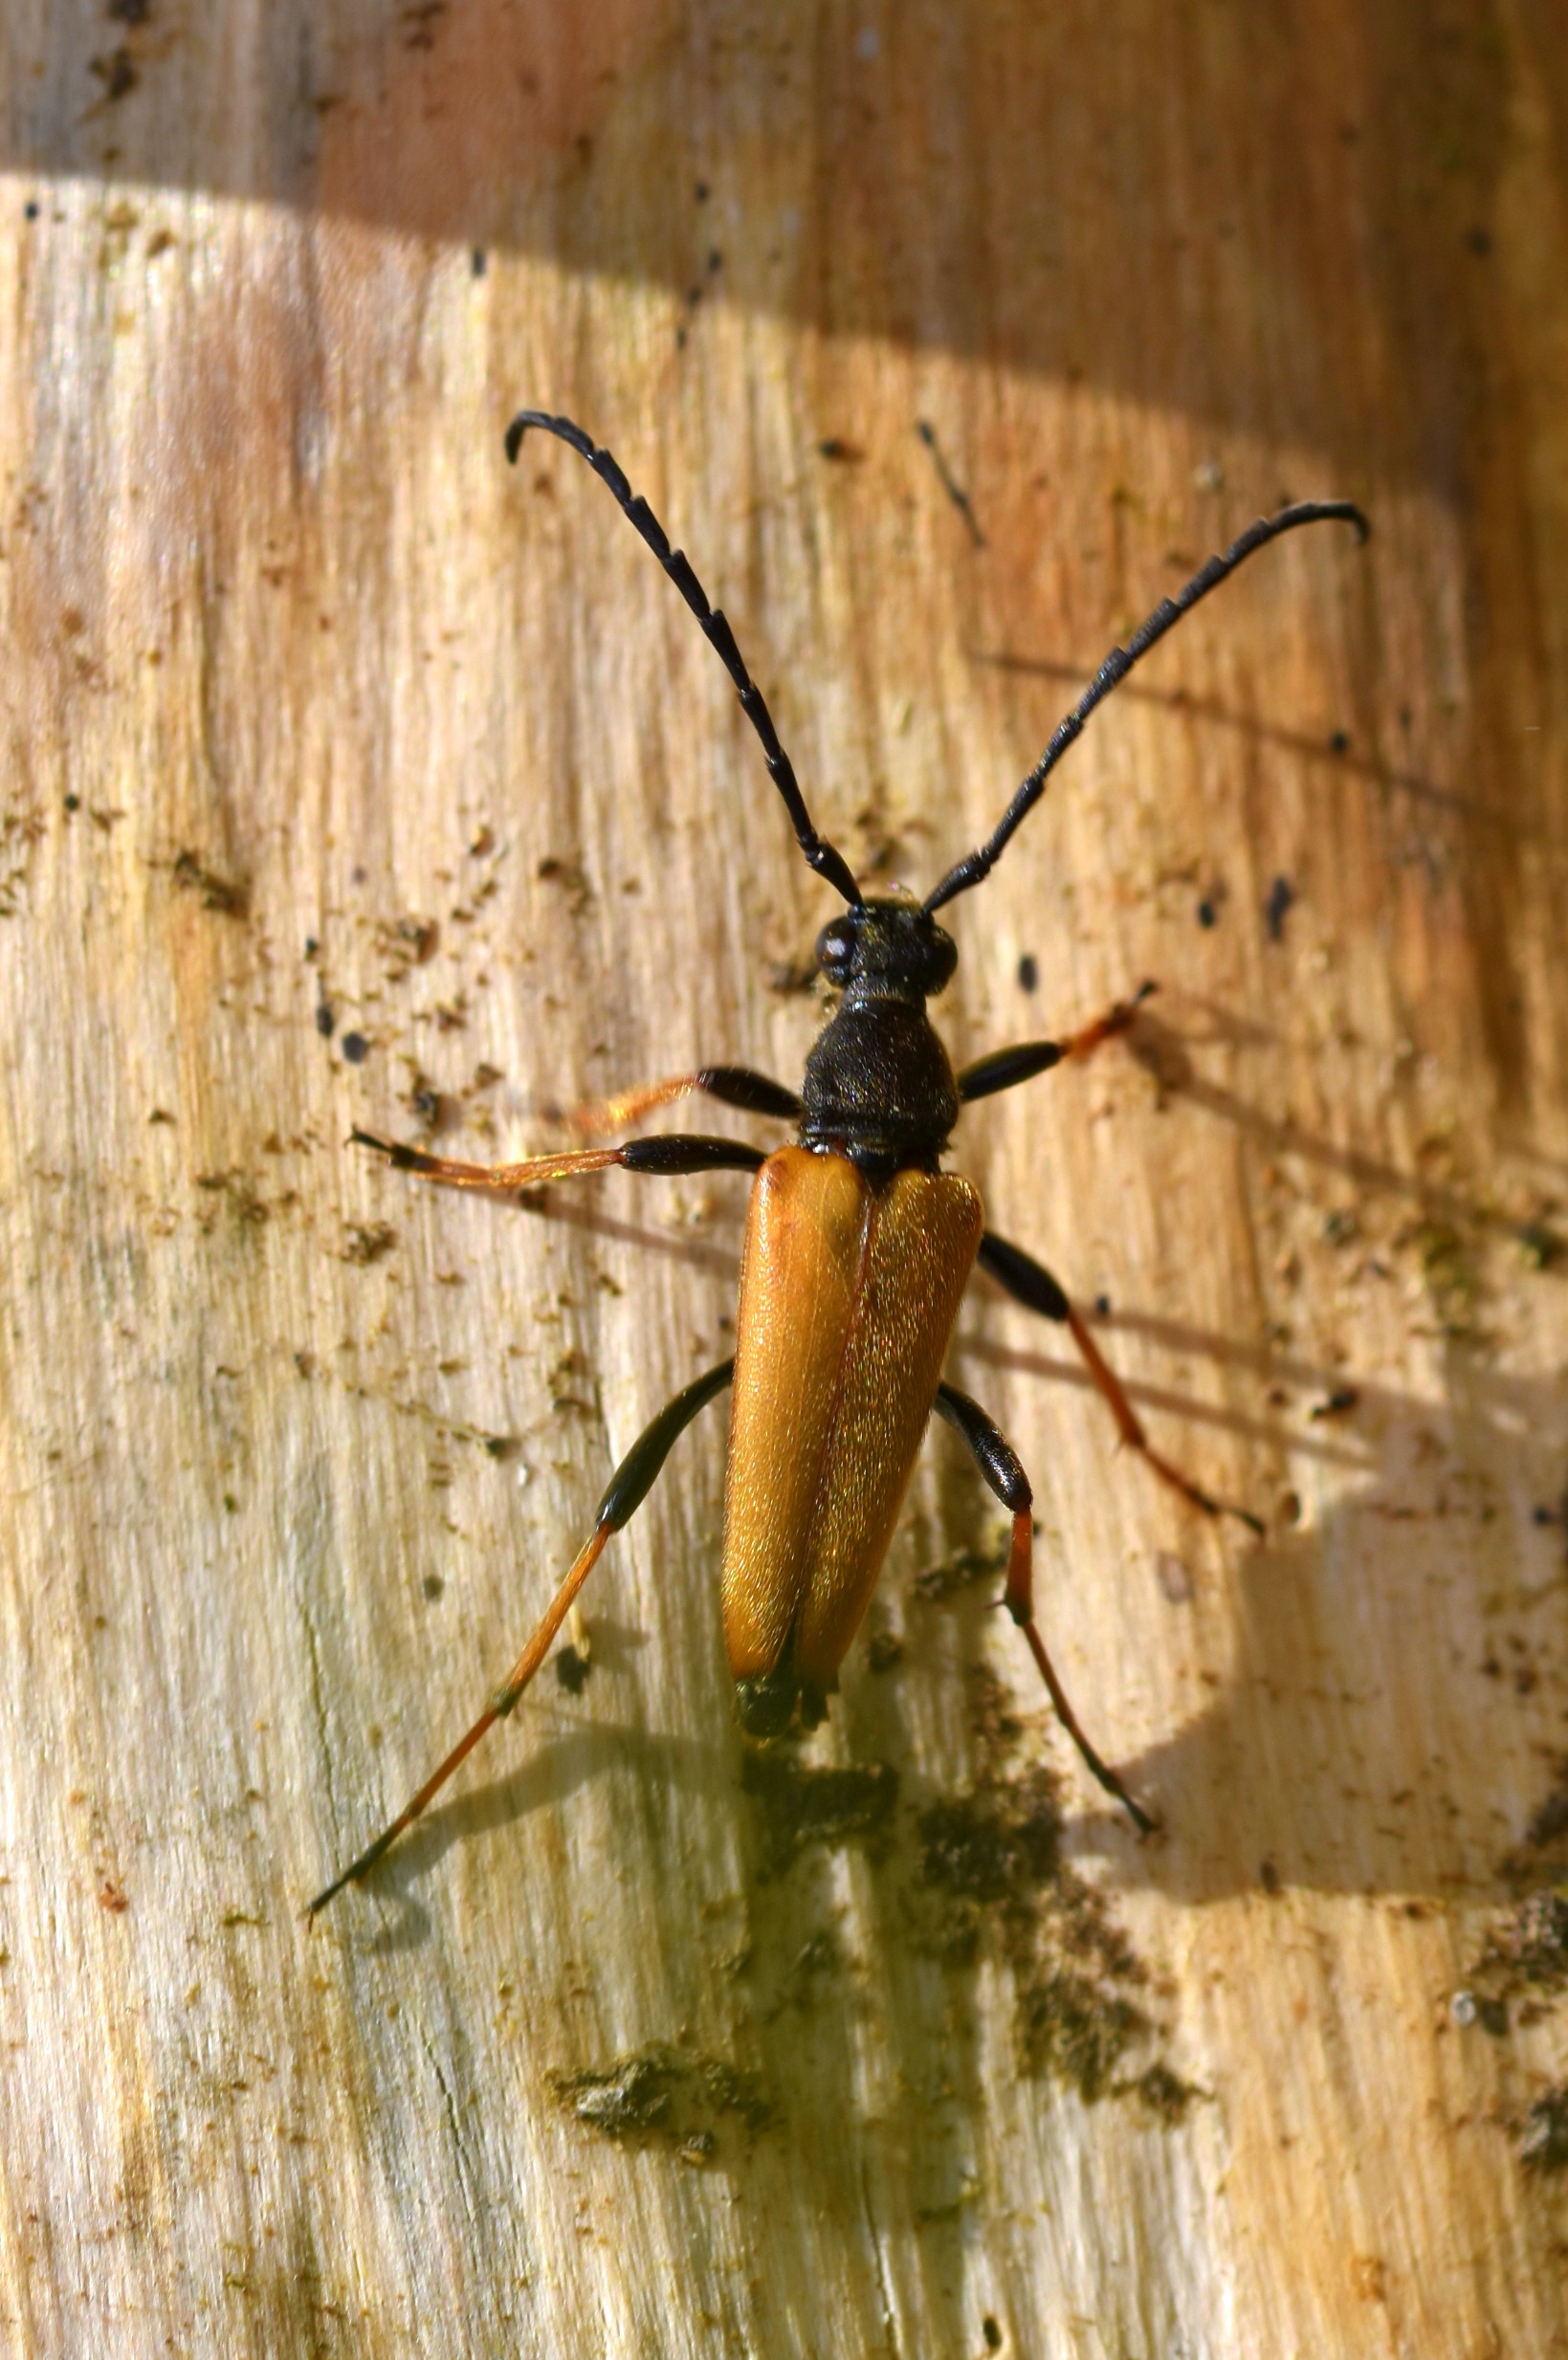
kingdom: Animalia
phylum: Arthropoda
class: Insecta
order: Coleoptera
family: Cerambycidae
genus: Stictoleptura
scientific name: Stictoleptura rubra
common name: Rød blomsterbuk
